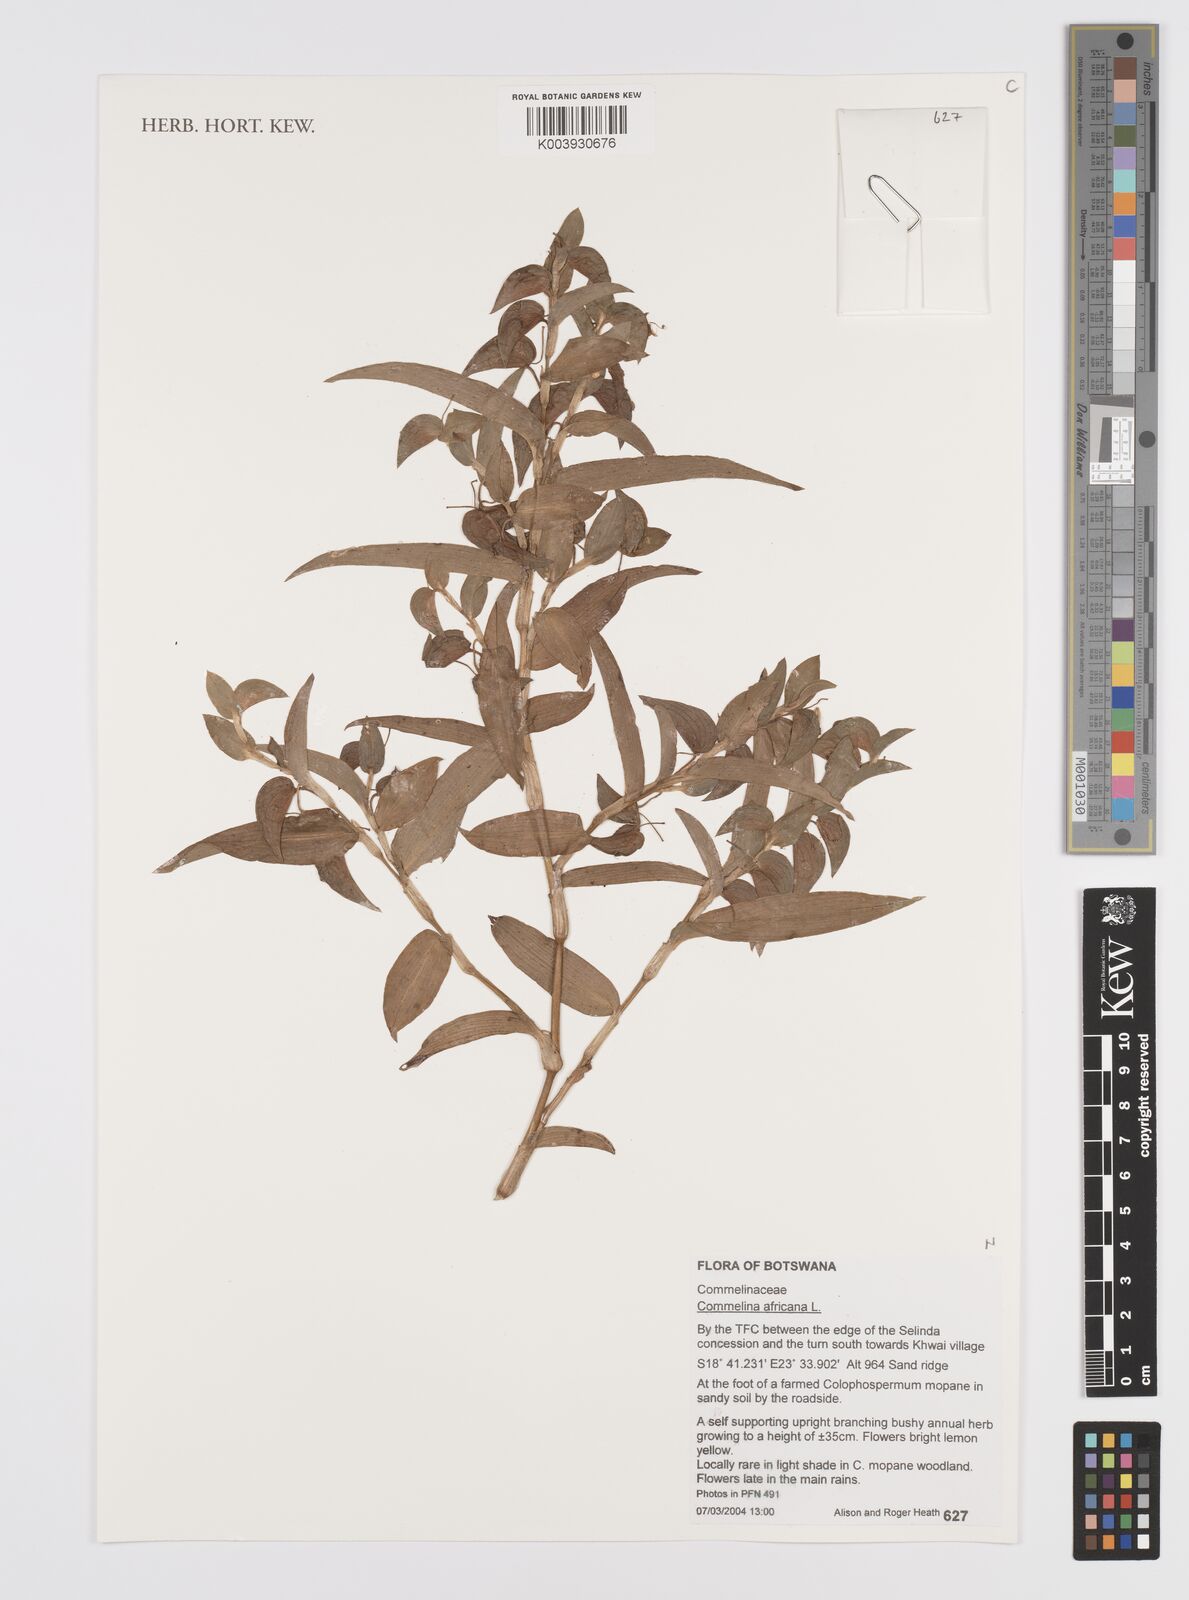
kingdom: Plantae
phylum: Tracheophyta
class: Liliopsida
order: Commelinales
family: Commelinaceae
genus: Commelina
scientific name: Commelina africana
